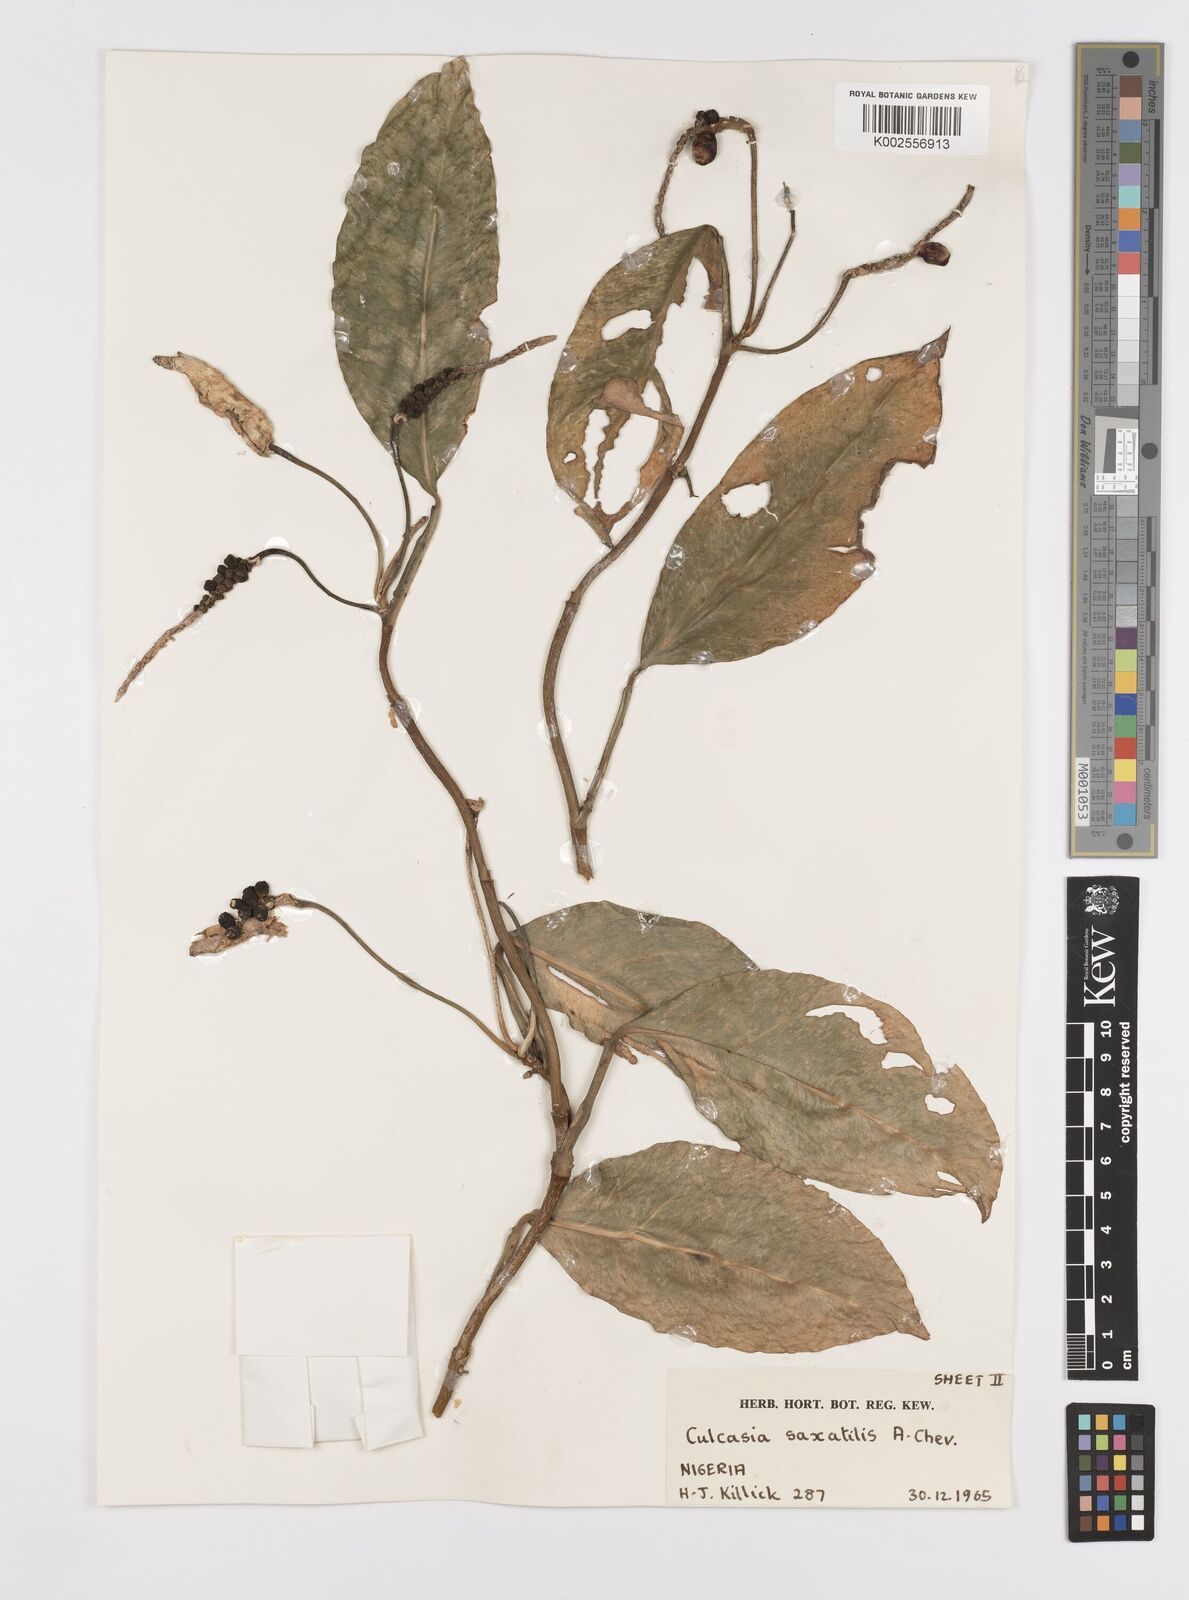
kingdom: Plantae
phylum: Tracheophyta
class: Liliopsida
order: Alismatales
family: Araceae
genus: Culcasia
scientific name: Culcasia scandens
